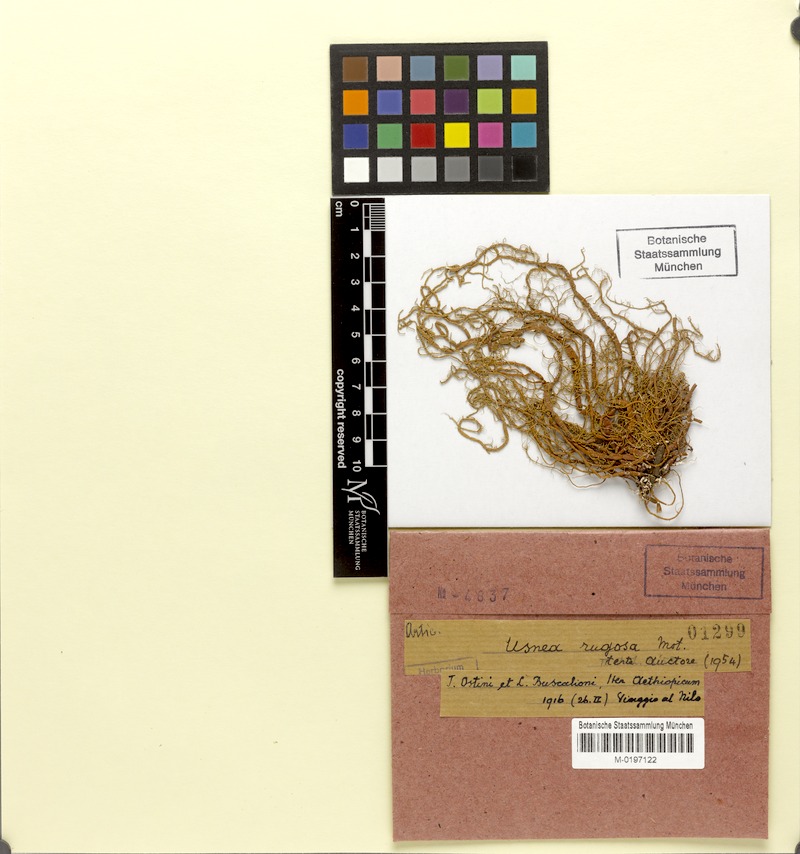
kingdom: Fungi
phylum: Ascomycota
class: Lecanoromycetes
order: Lecanorales
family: Parmeliaceae
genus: Usnea
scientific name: Usnea
